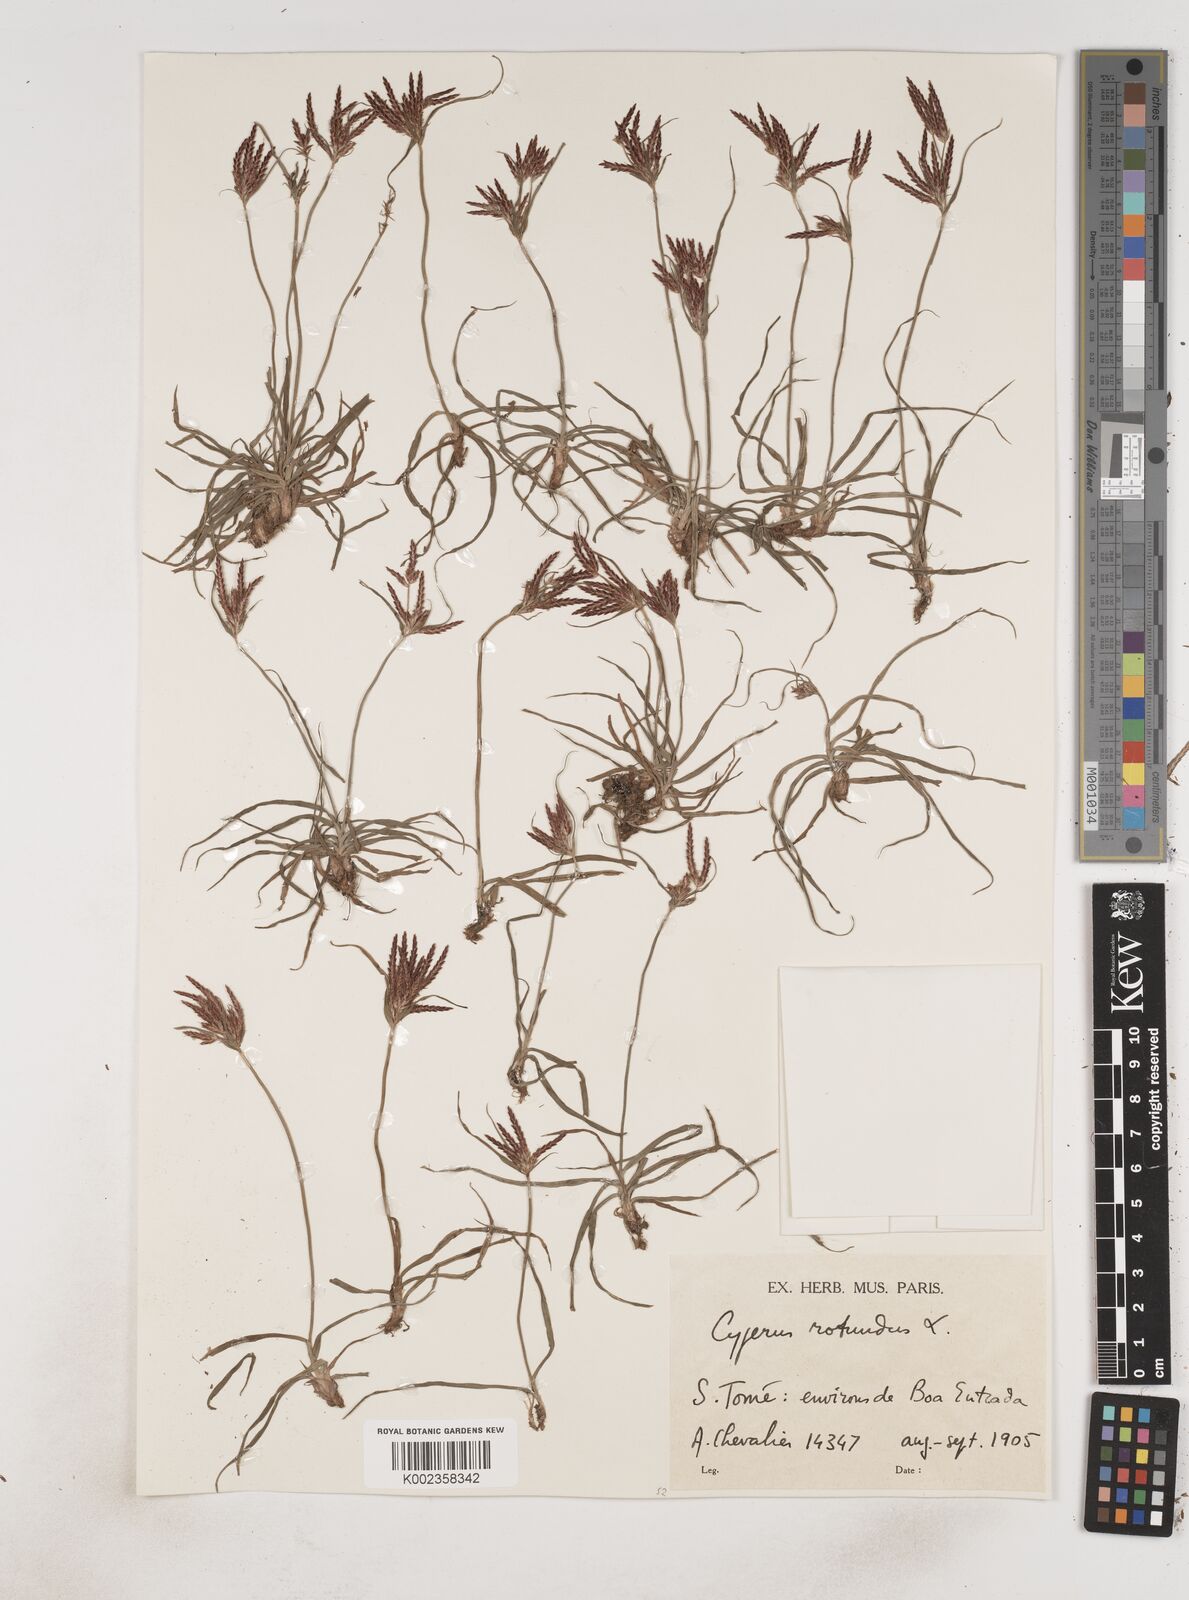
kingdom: Plantae
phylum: Tracheophyta
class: Liliopsida
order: Poales
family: Cyperaceae
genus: Cyperus
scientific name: Cyperus tuberosus
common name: Nut grass
